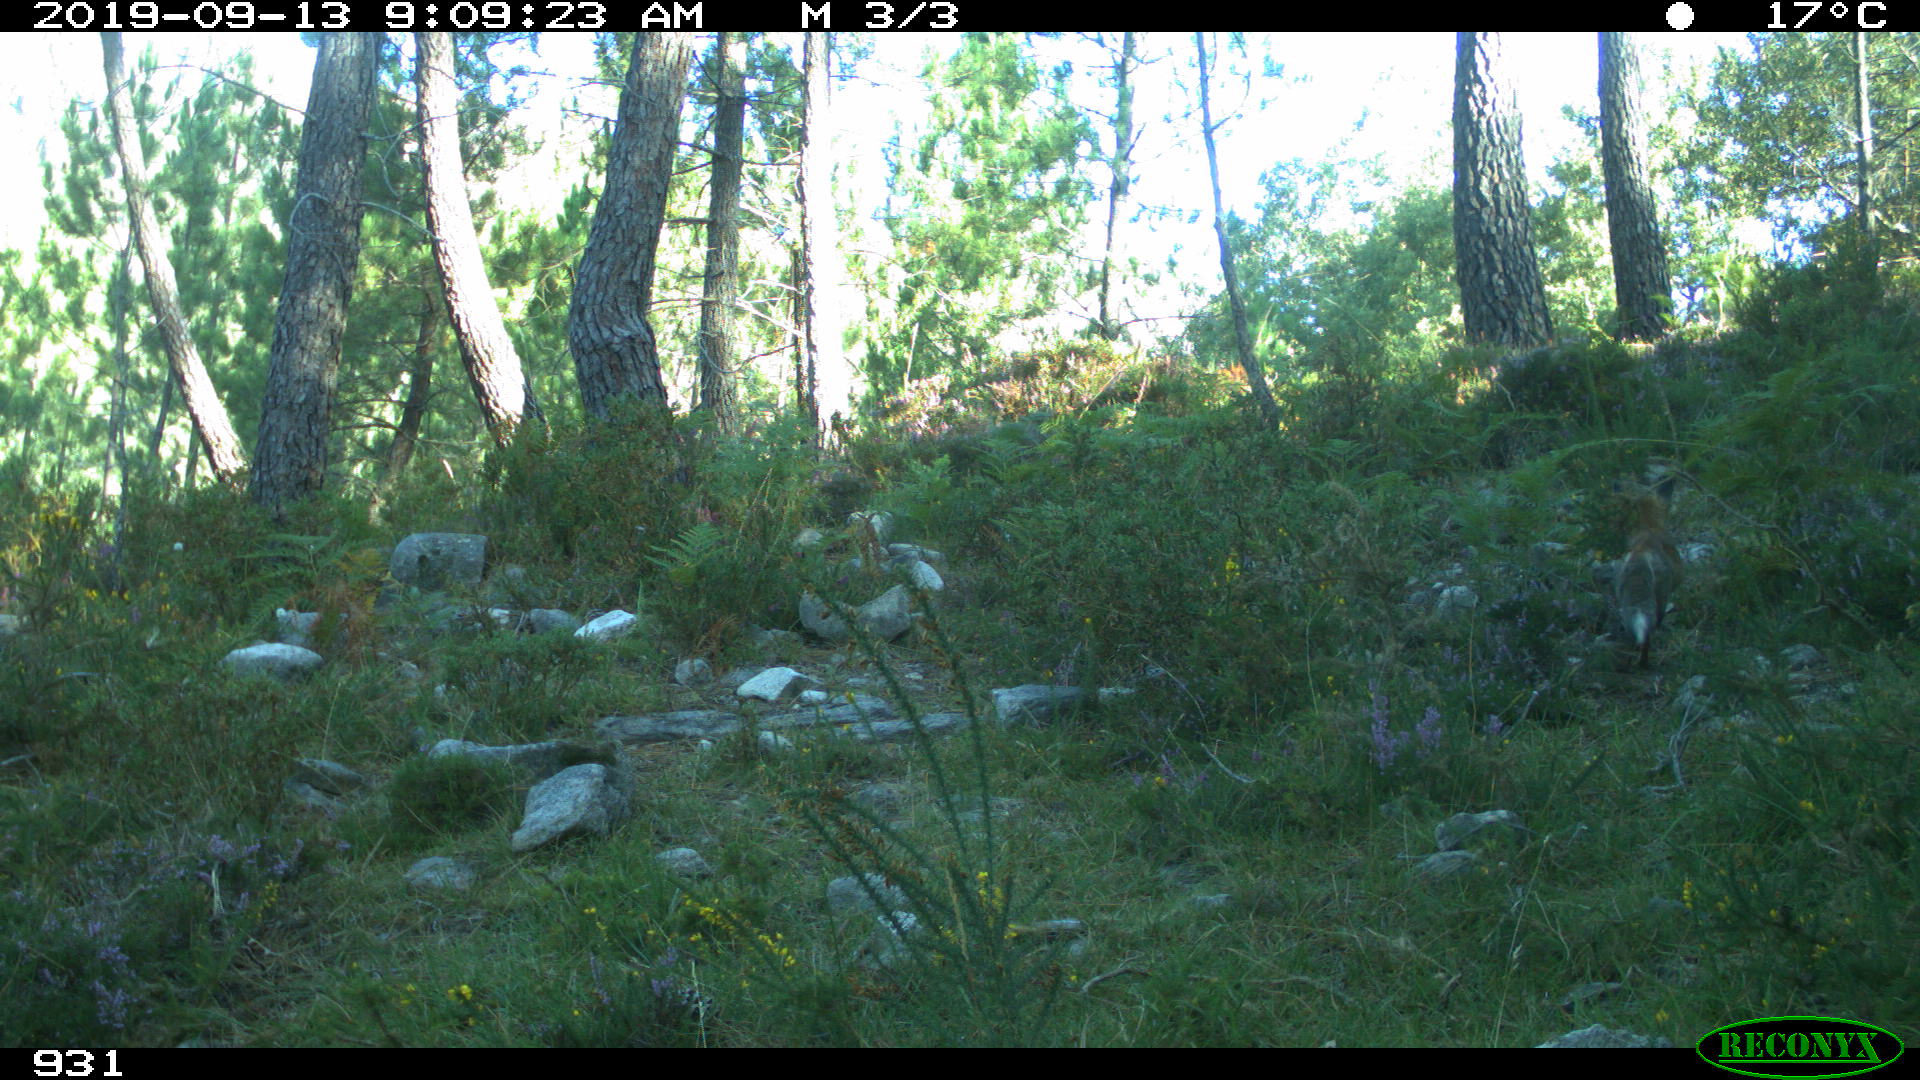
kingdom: Animalia
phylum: Chordata
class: Mammalia
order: Carnivora
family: Canidae
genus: Vulpes
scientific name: Vulpes vulpes
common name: Red fox
